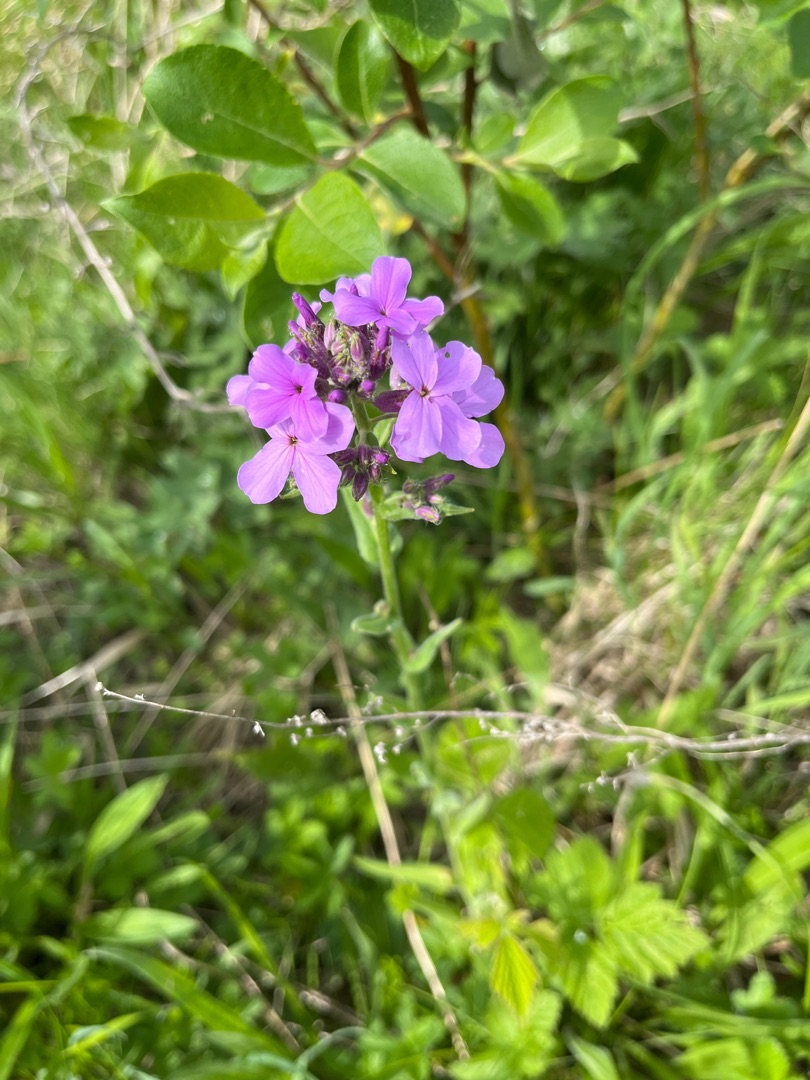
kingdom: Plantae
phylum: Tracheophyta
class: Magnoliopsida
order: Brassicales
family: Brassicaceae
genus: Hesperis
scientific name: Hesperis matronalis
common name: Aftenstjerne
